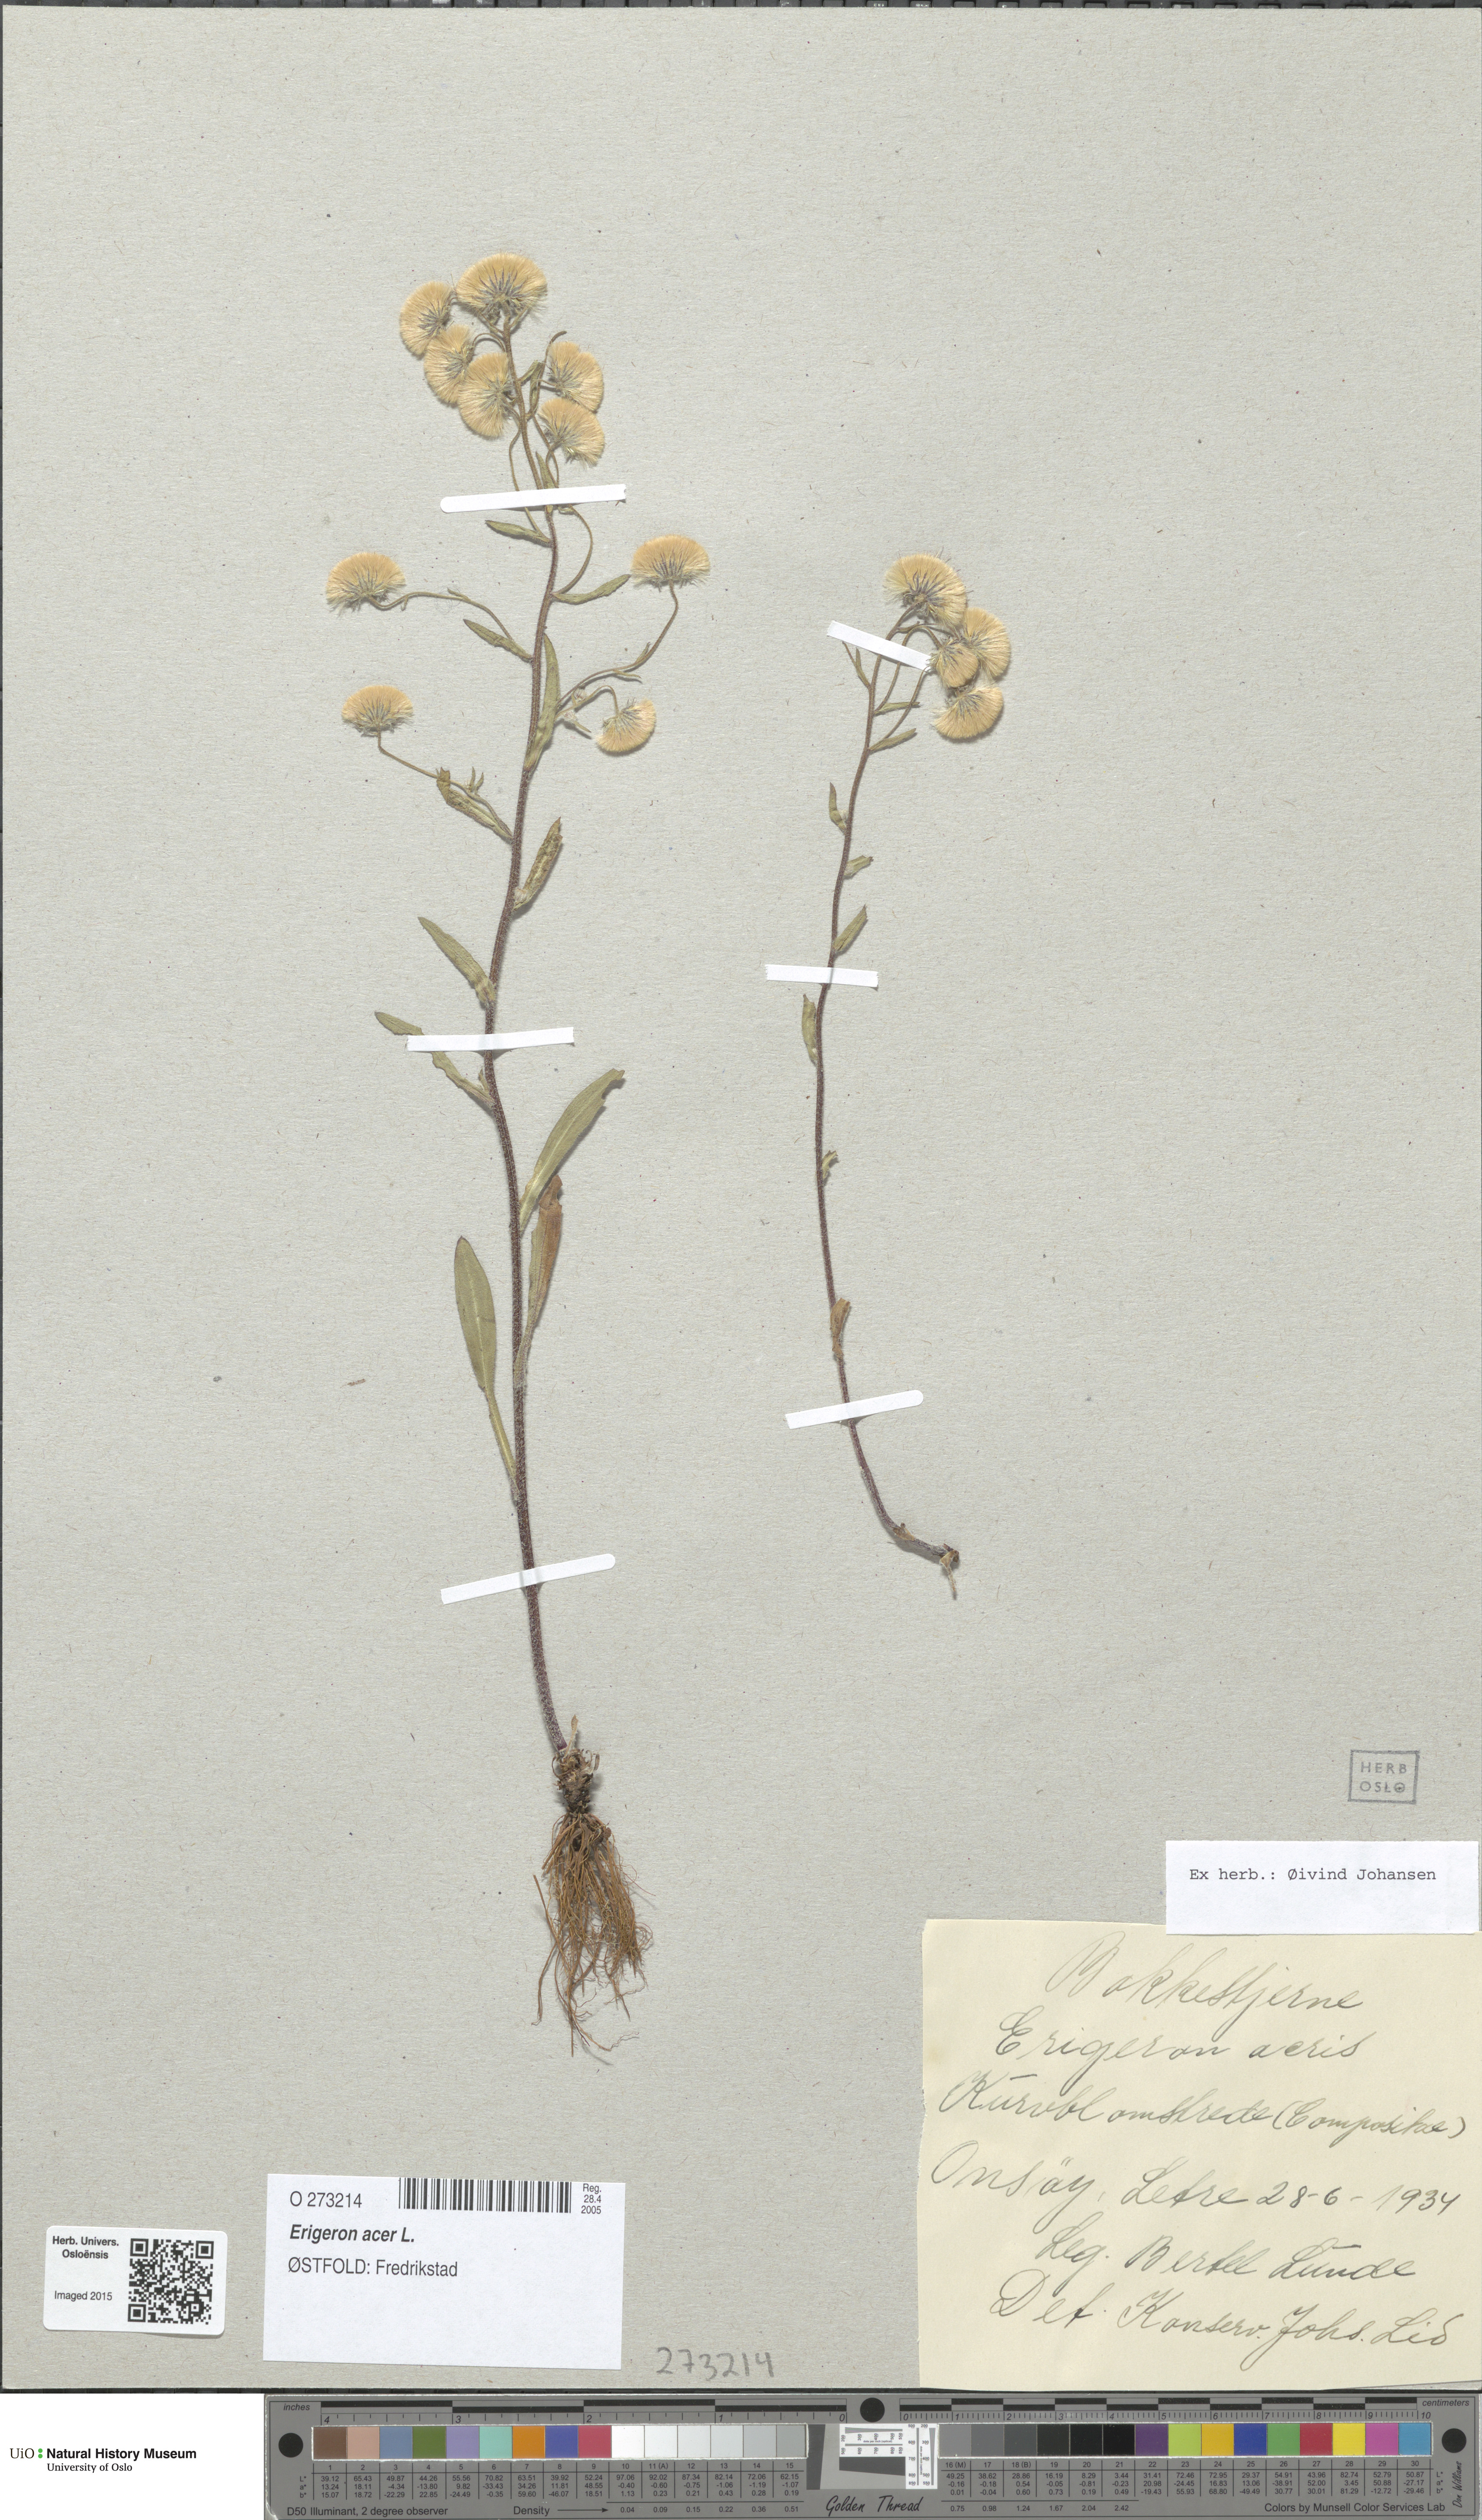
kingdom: Plantae
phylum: Tracheophyta
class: Magnoliopsida
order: Asterales
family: Asteraceae
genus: Erigeron
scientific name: Erigeron acris
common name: Blue fleabane
